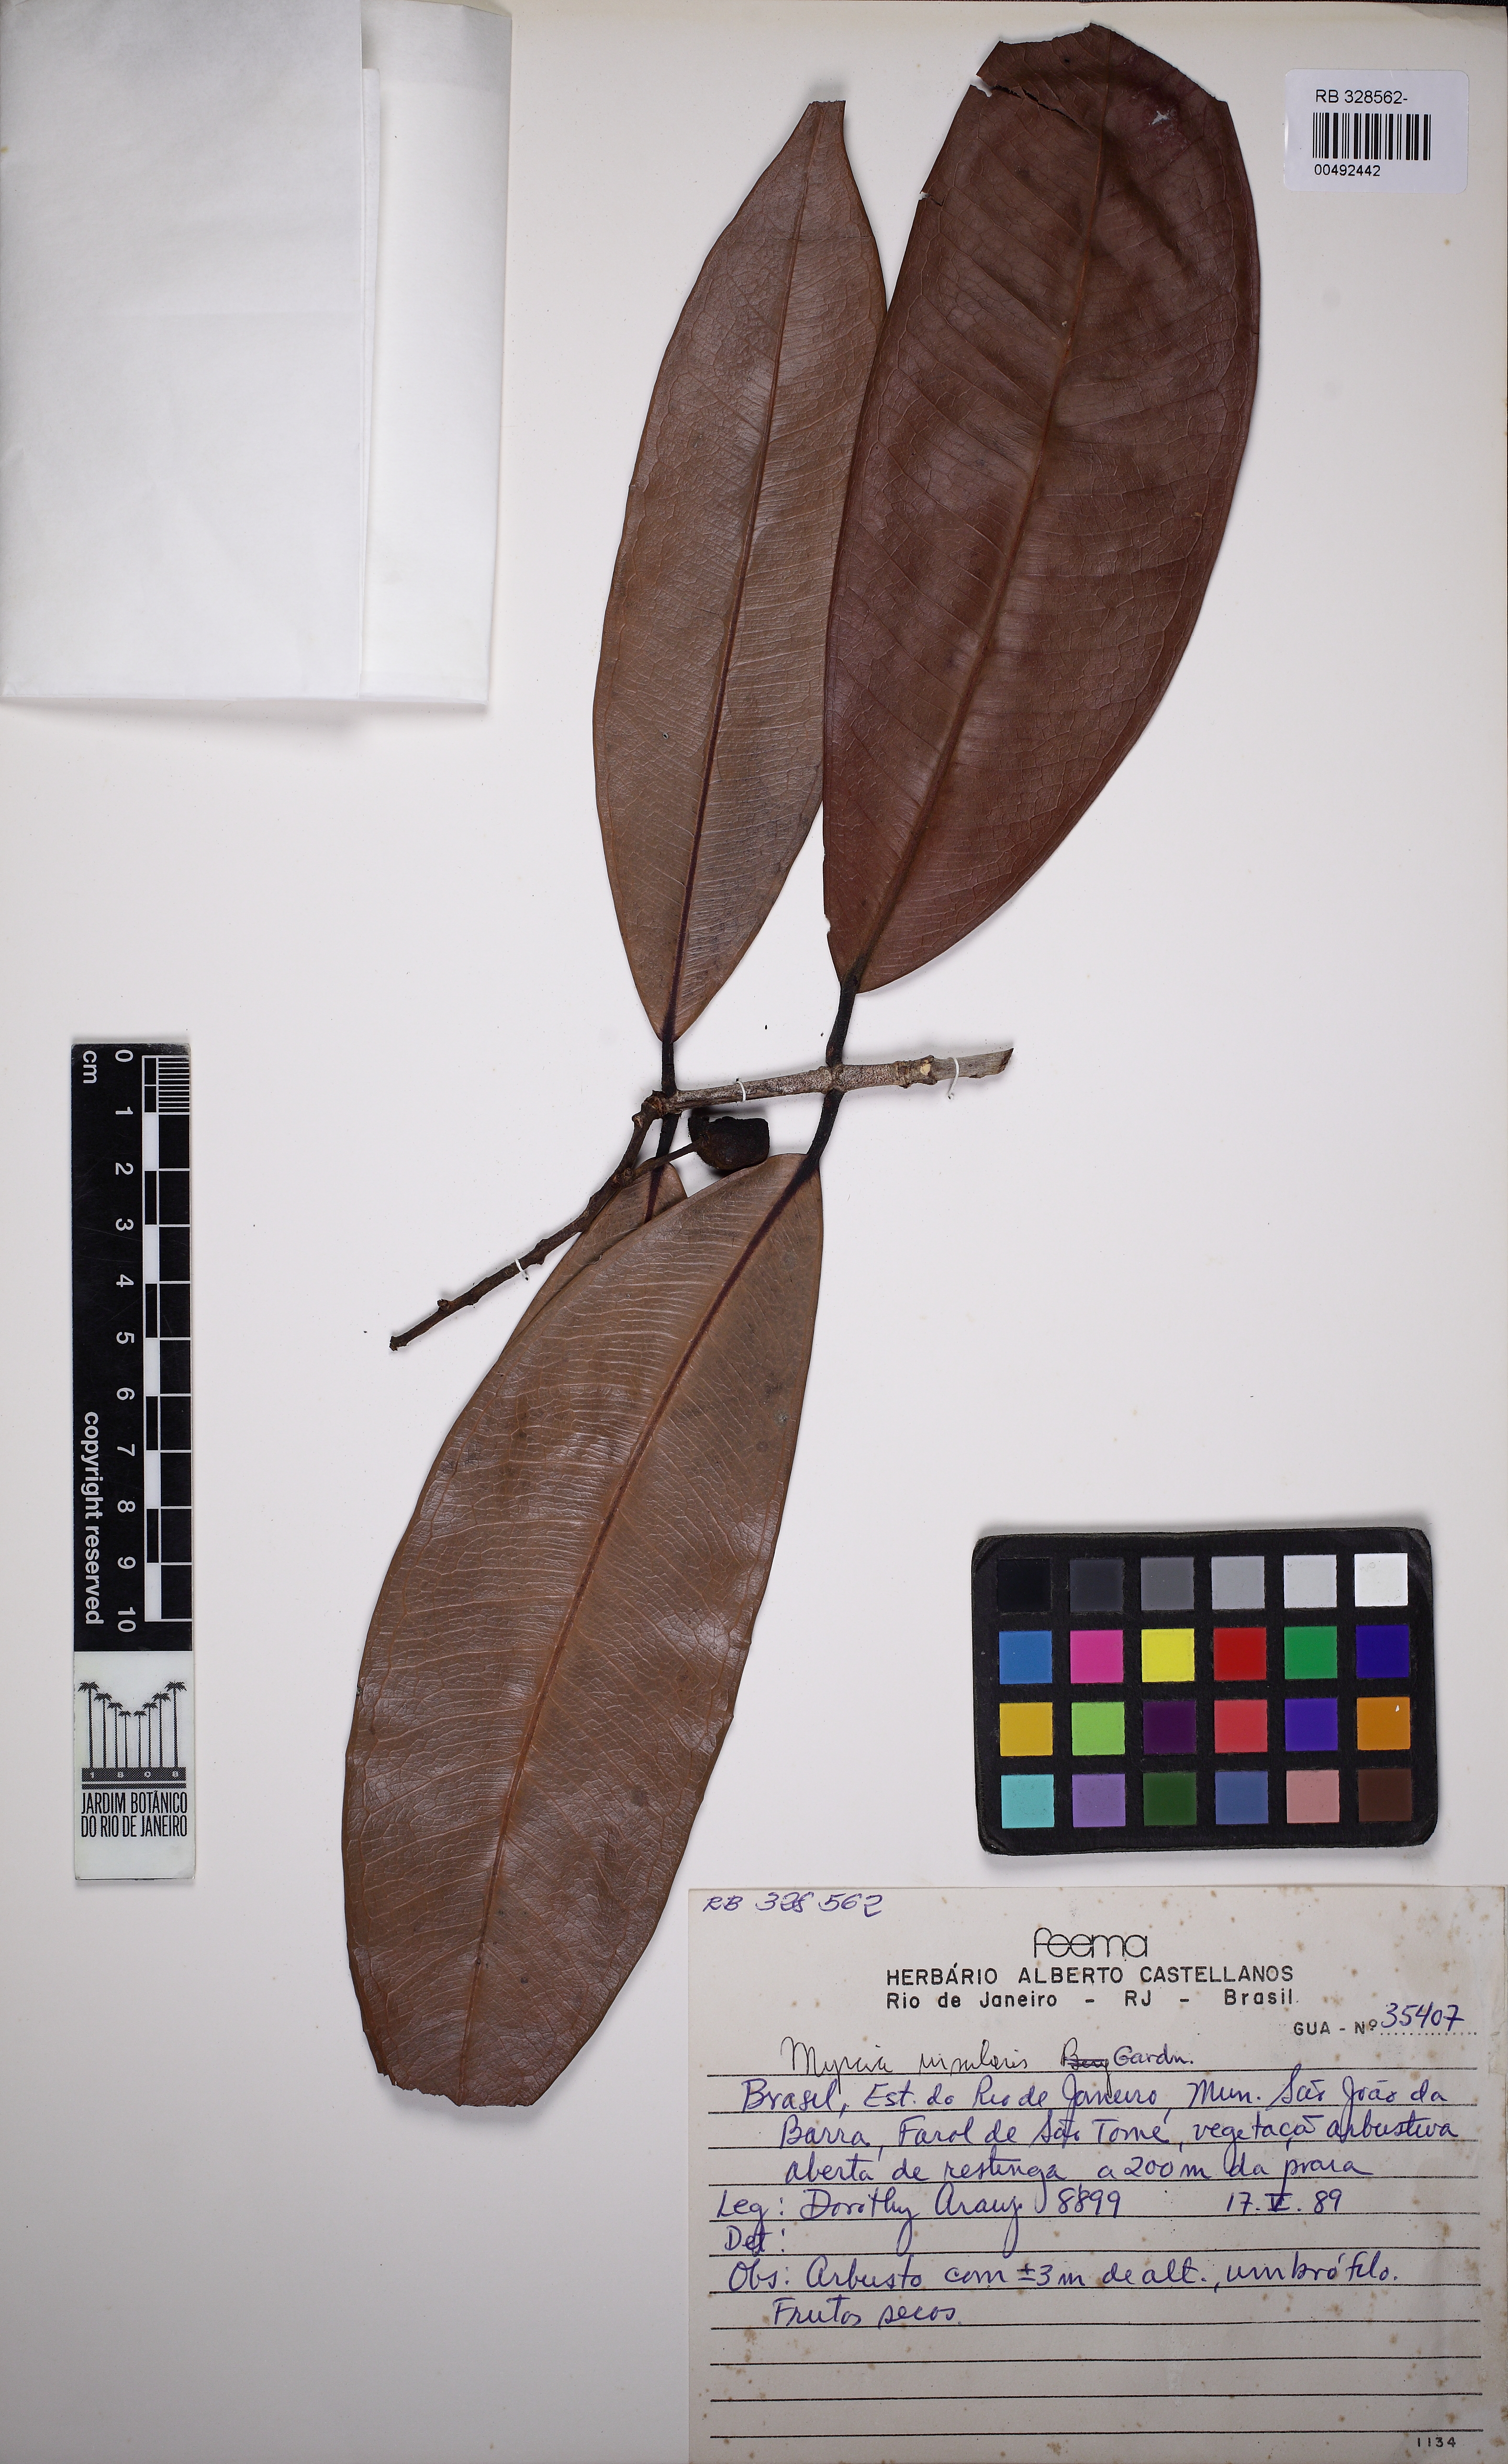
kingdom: Plantae
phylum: Tracheophyta
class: Magnoliopsida
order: Myrtales
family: Myrtaceae
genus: Myrcia
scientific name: Myrcia insularis
